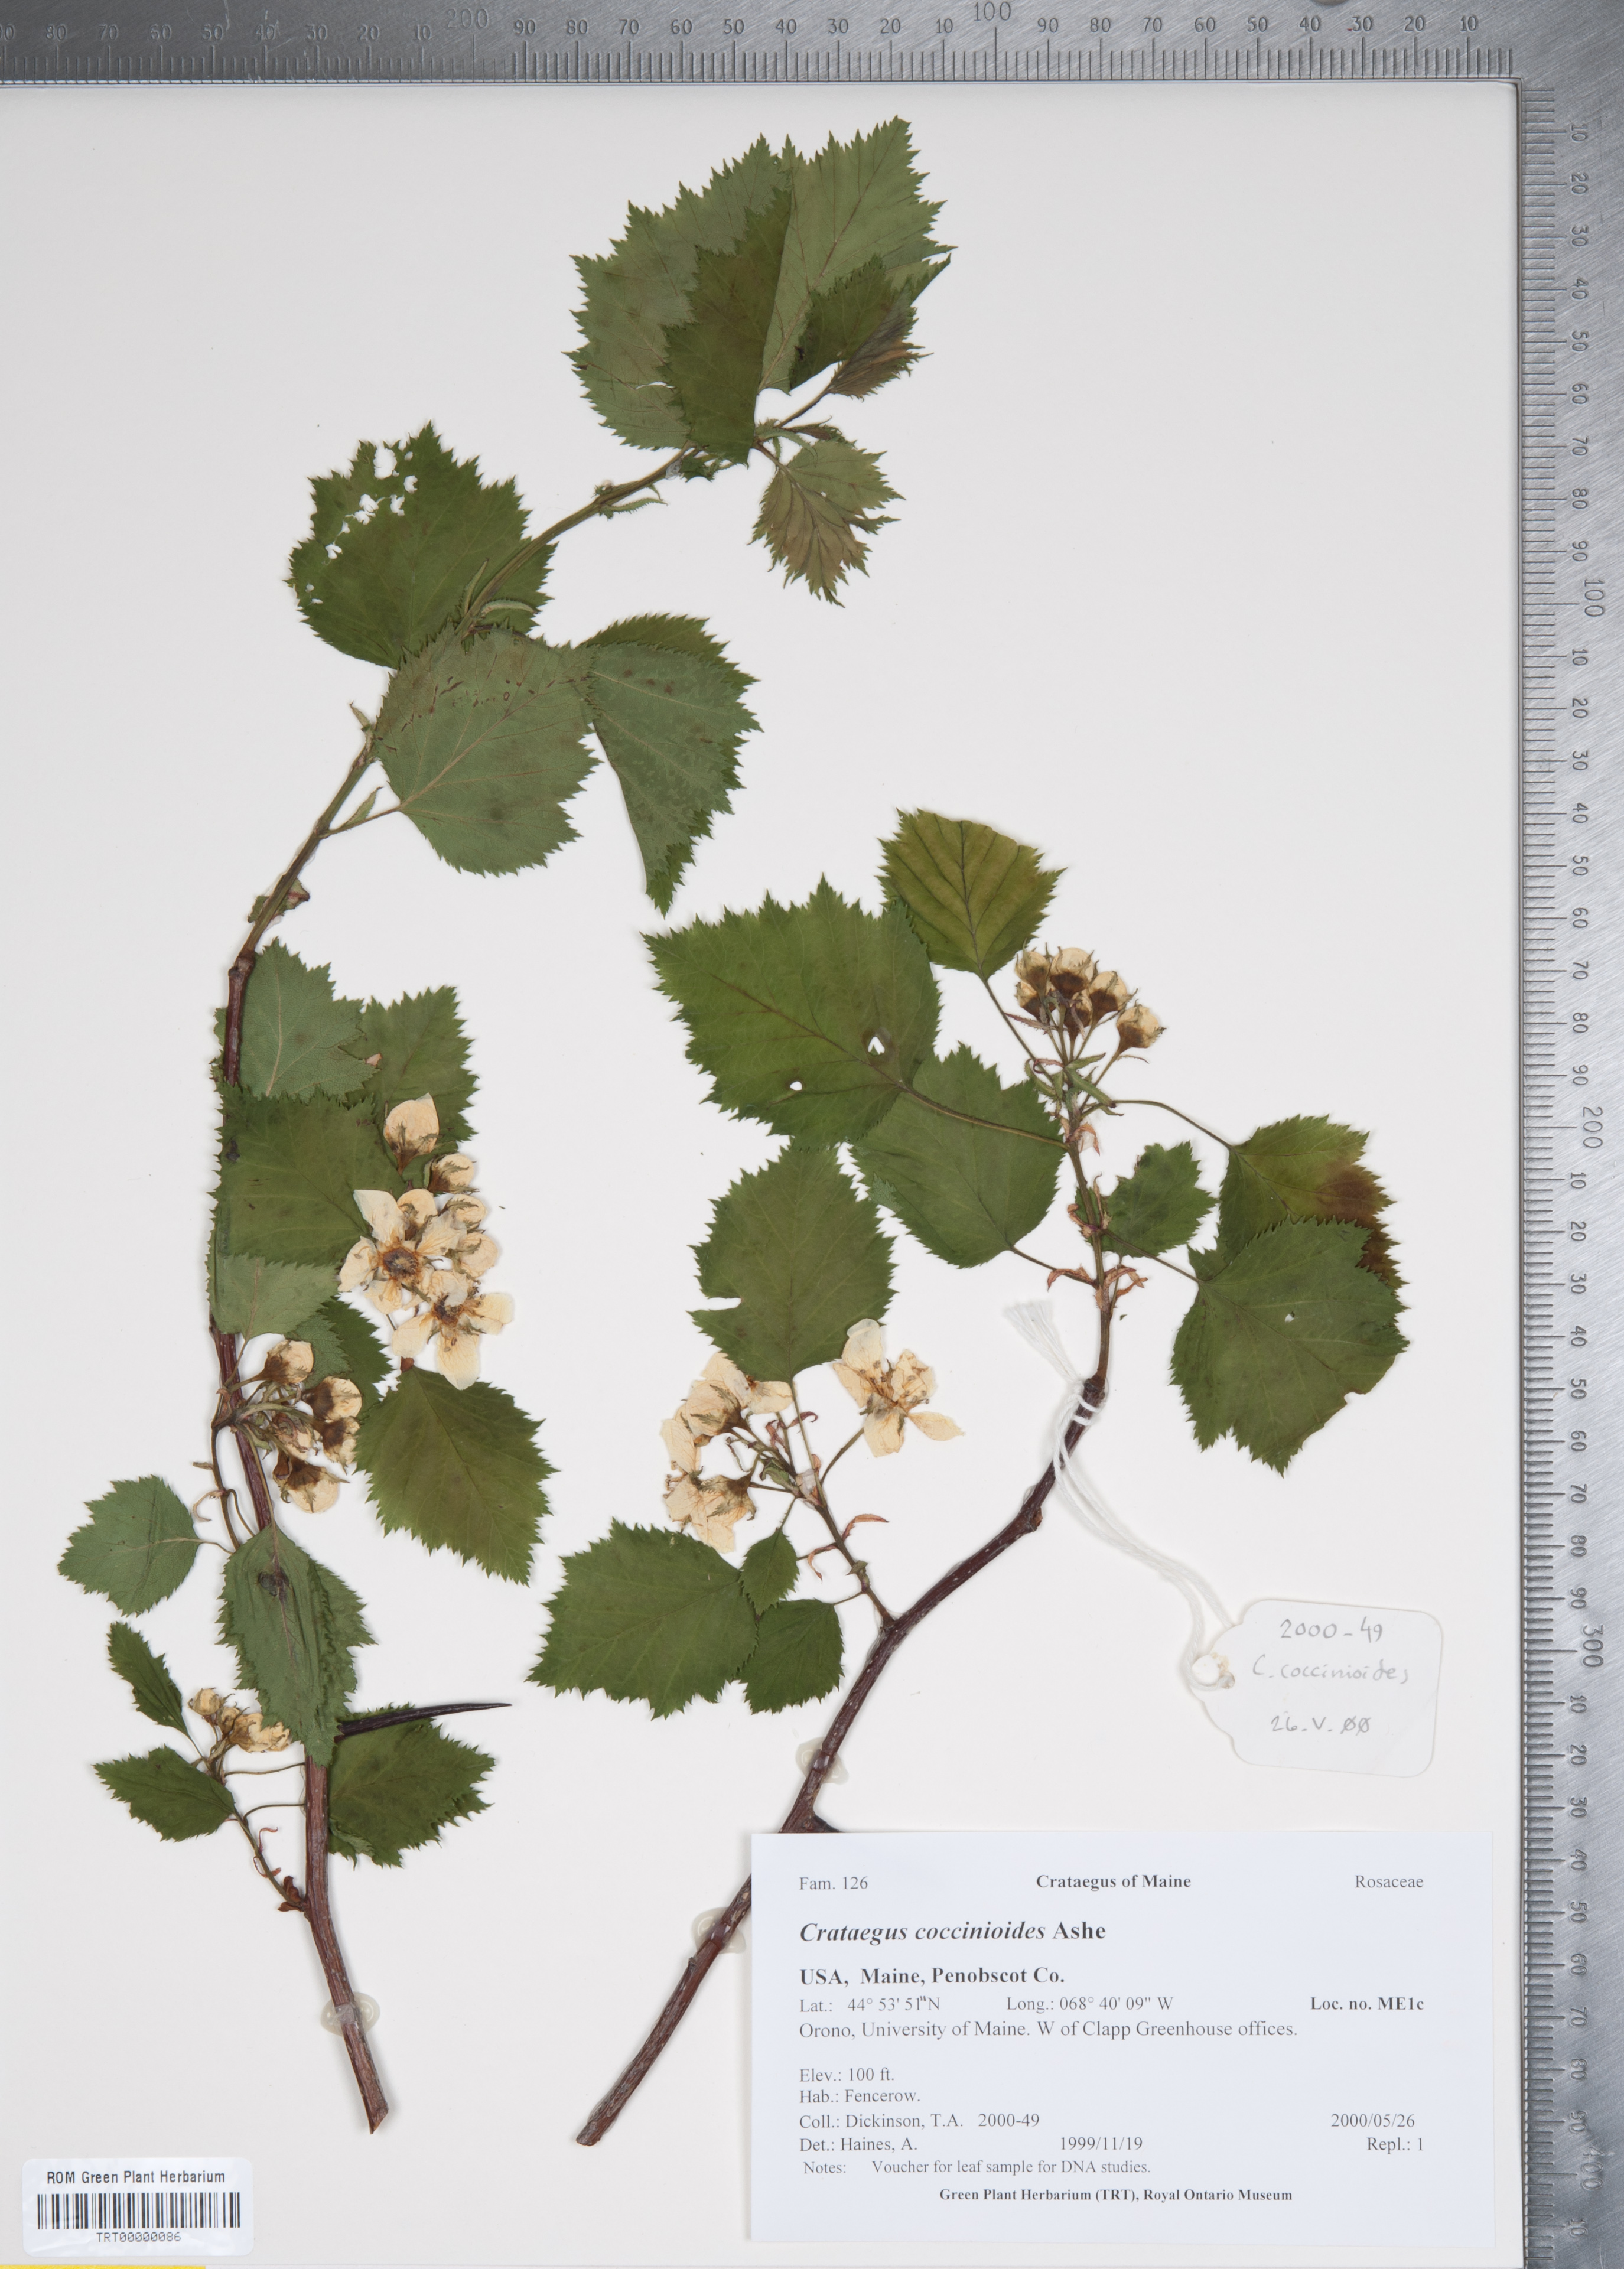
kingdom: Plantae
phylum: Tracheophyta
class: Magnoliopsida
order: Rosales
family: Rosaceae
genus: Crataegus
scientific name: Crataegus coccinioides
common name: Large-flowered cockspurthorn
